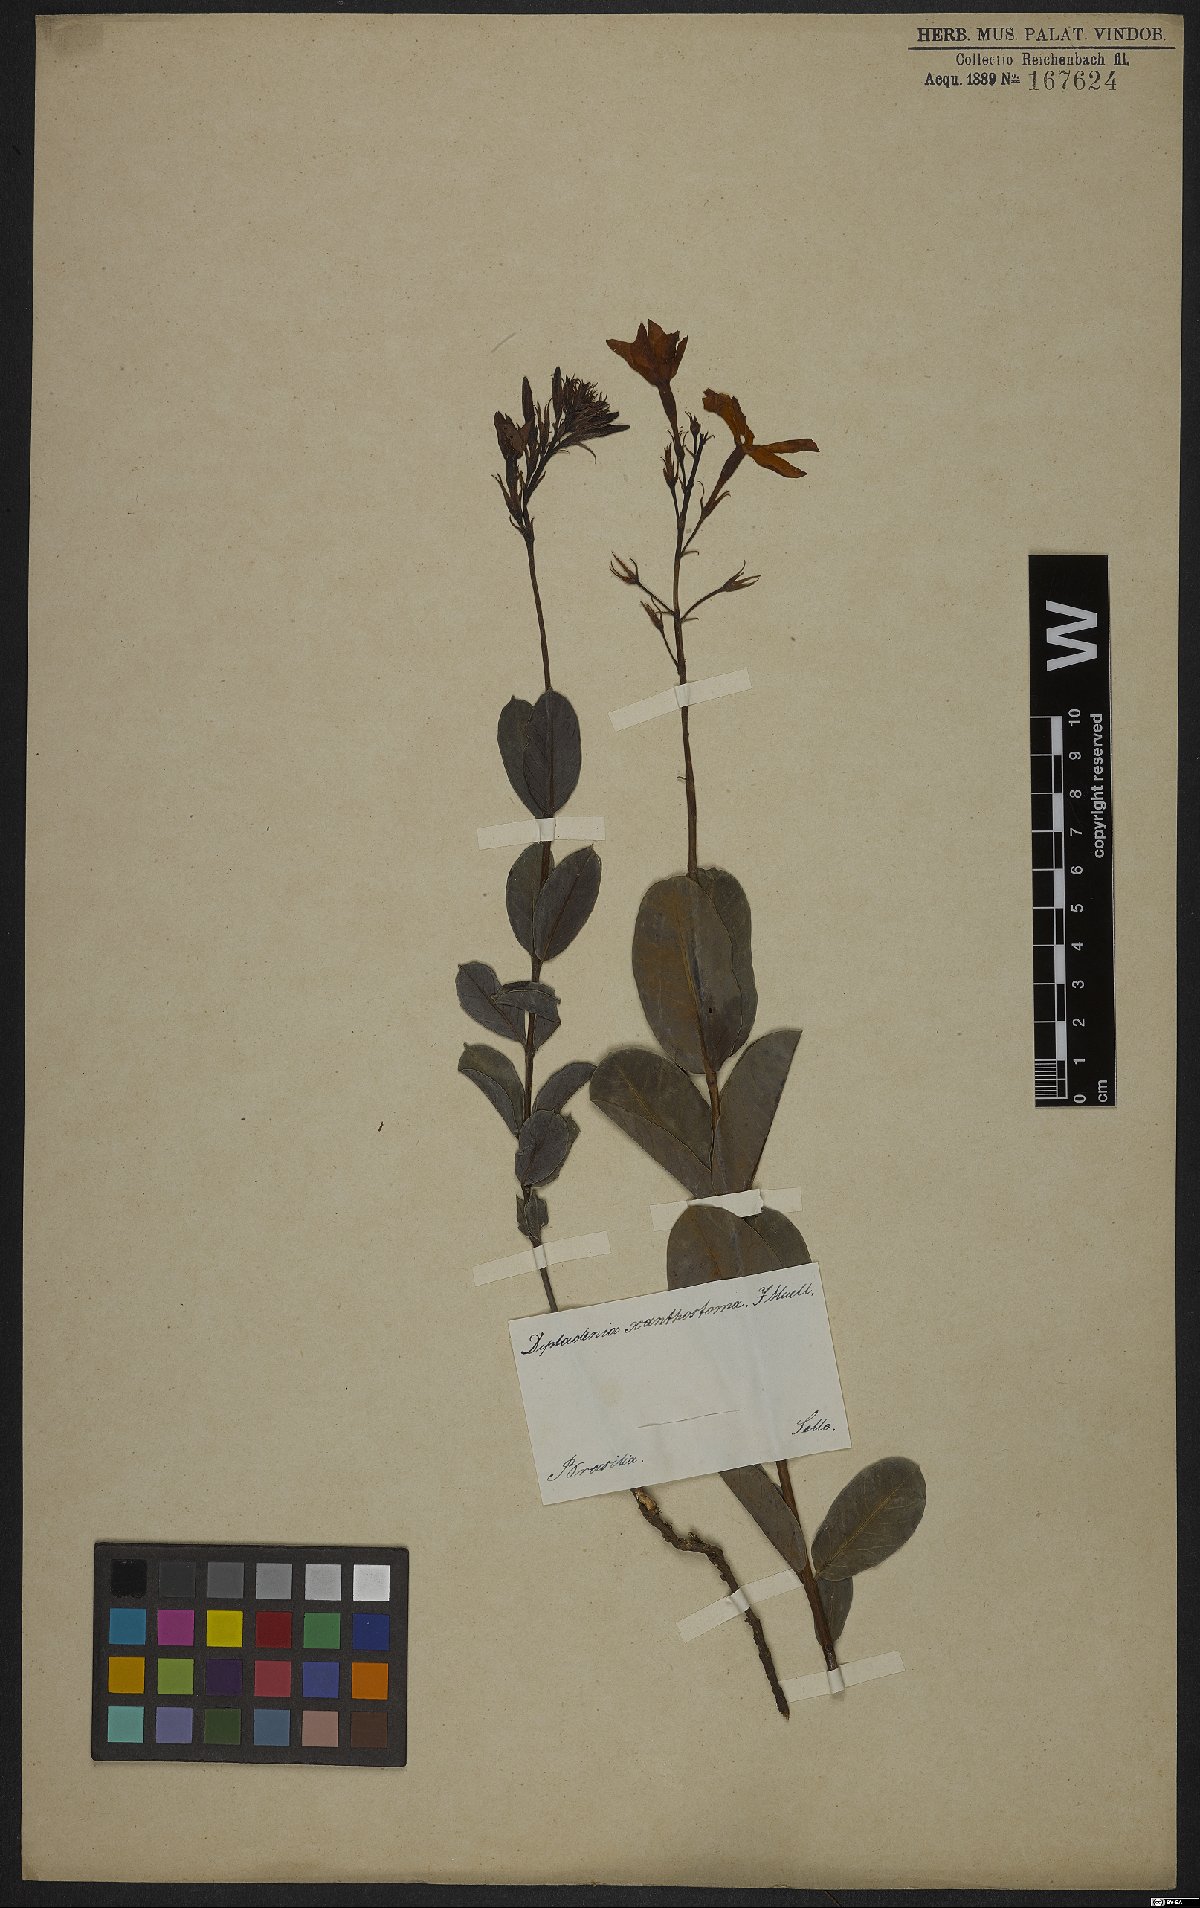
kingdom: Plantae
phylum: Tracheophyta
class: Magnoliopsida
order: Gentianales
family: Apocynaceae
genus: Mandevilla
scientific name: Mandevilla coccinea
